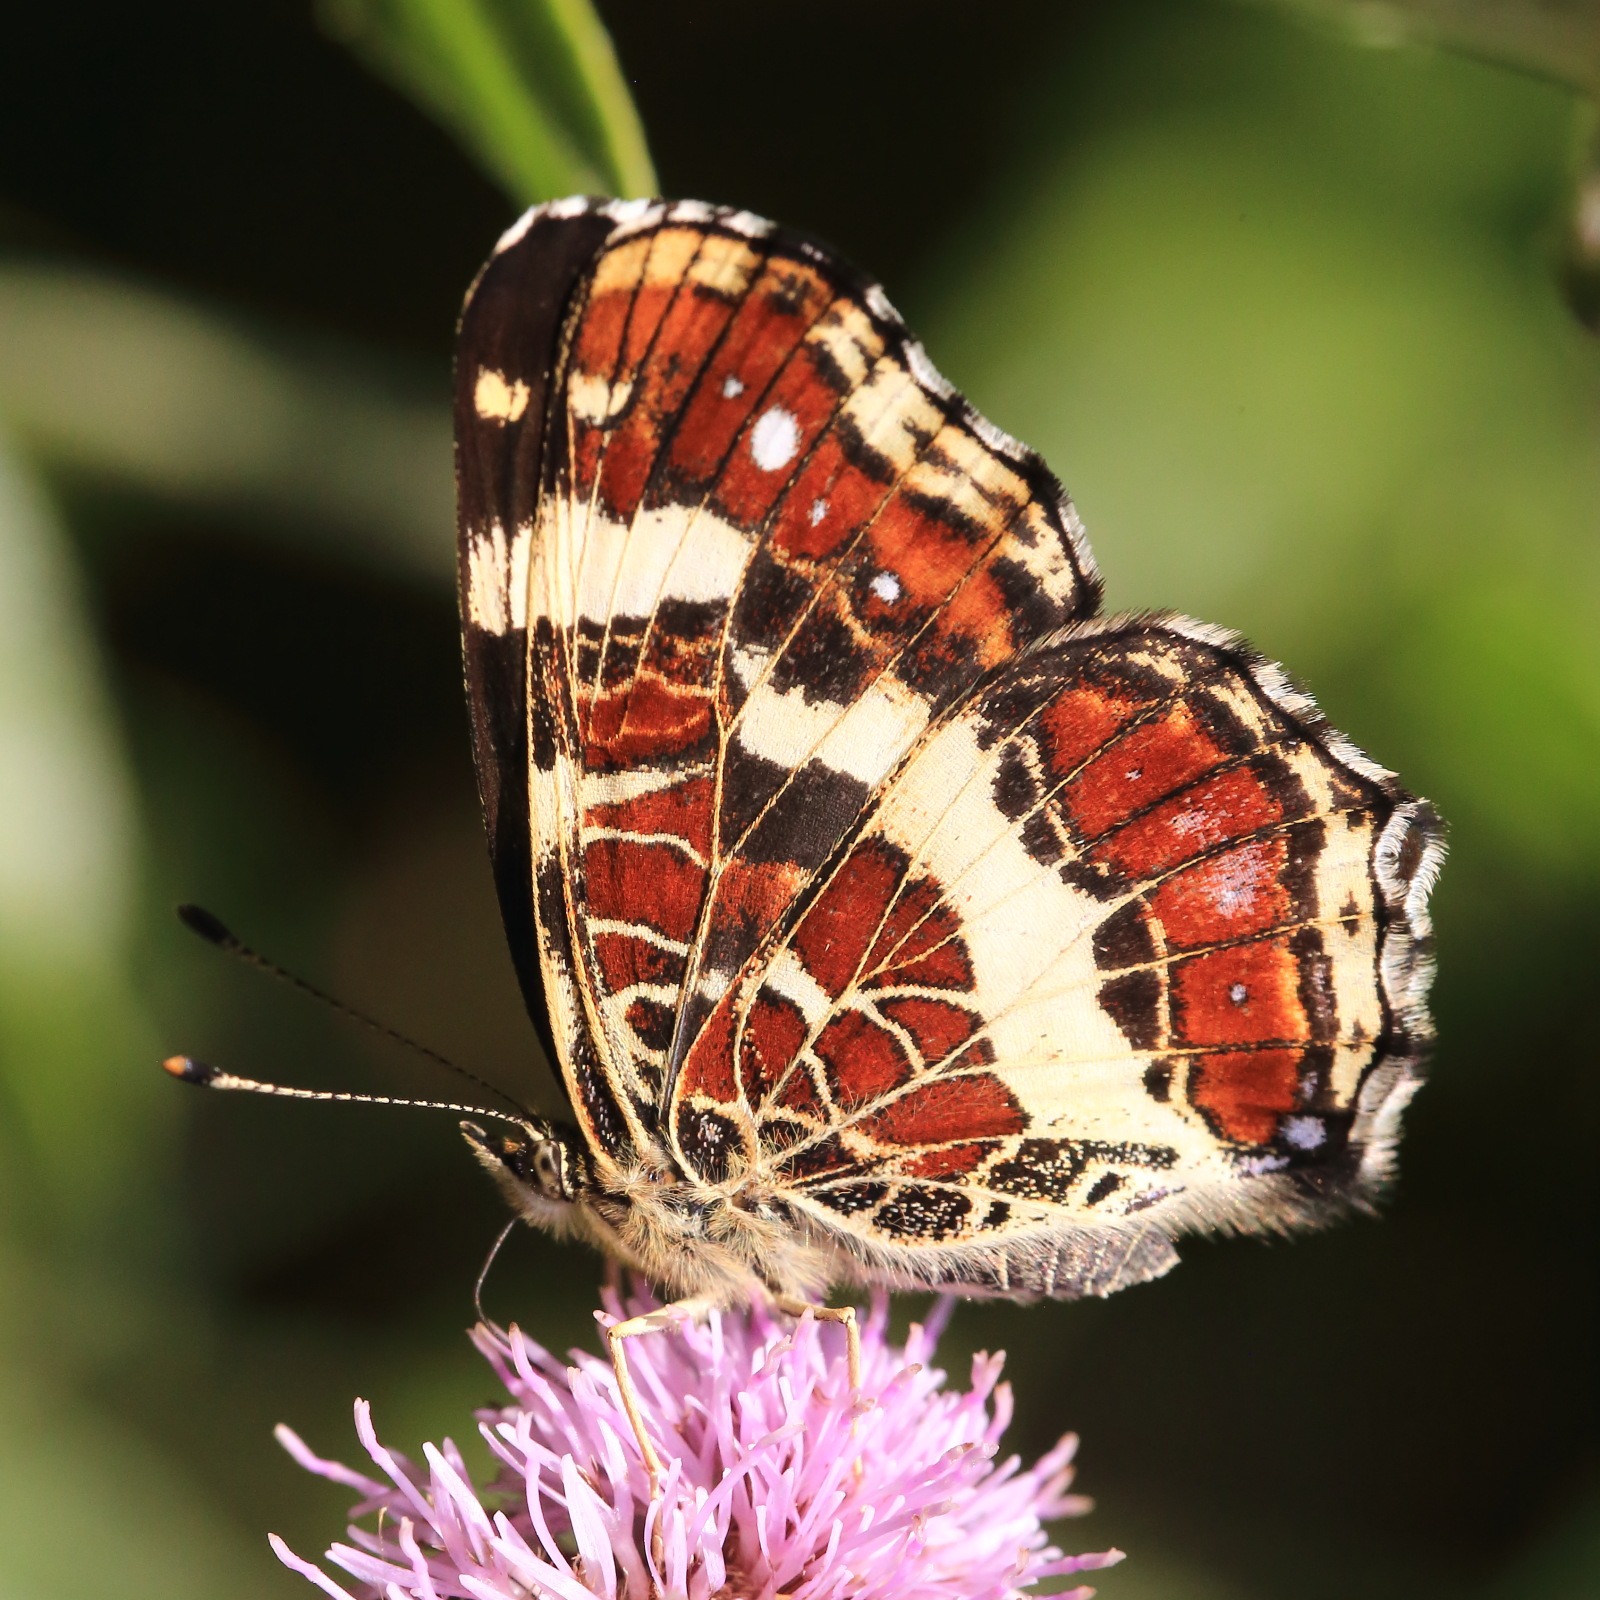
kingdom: Animalia
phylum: Arthropoda
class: Insecta
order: Lepidoptera
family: Nymphalidae
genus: Araschnia
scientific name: Araschnia levana
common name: Nældesommerfugl
